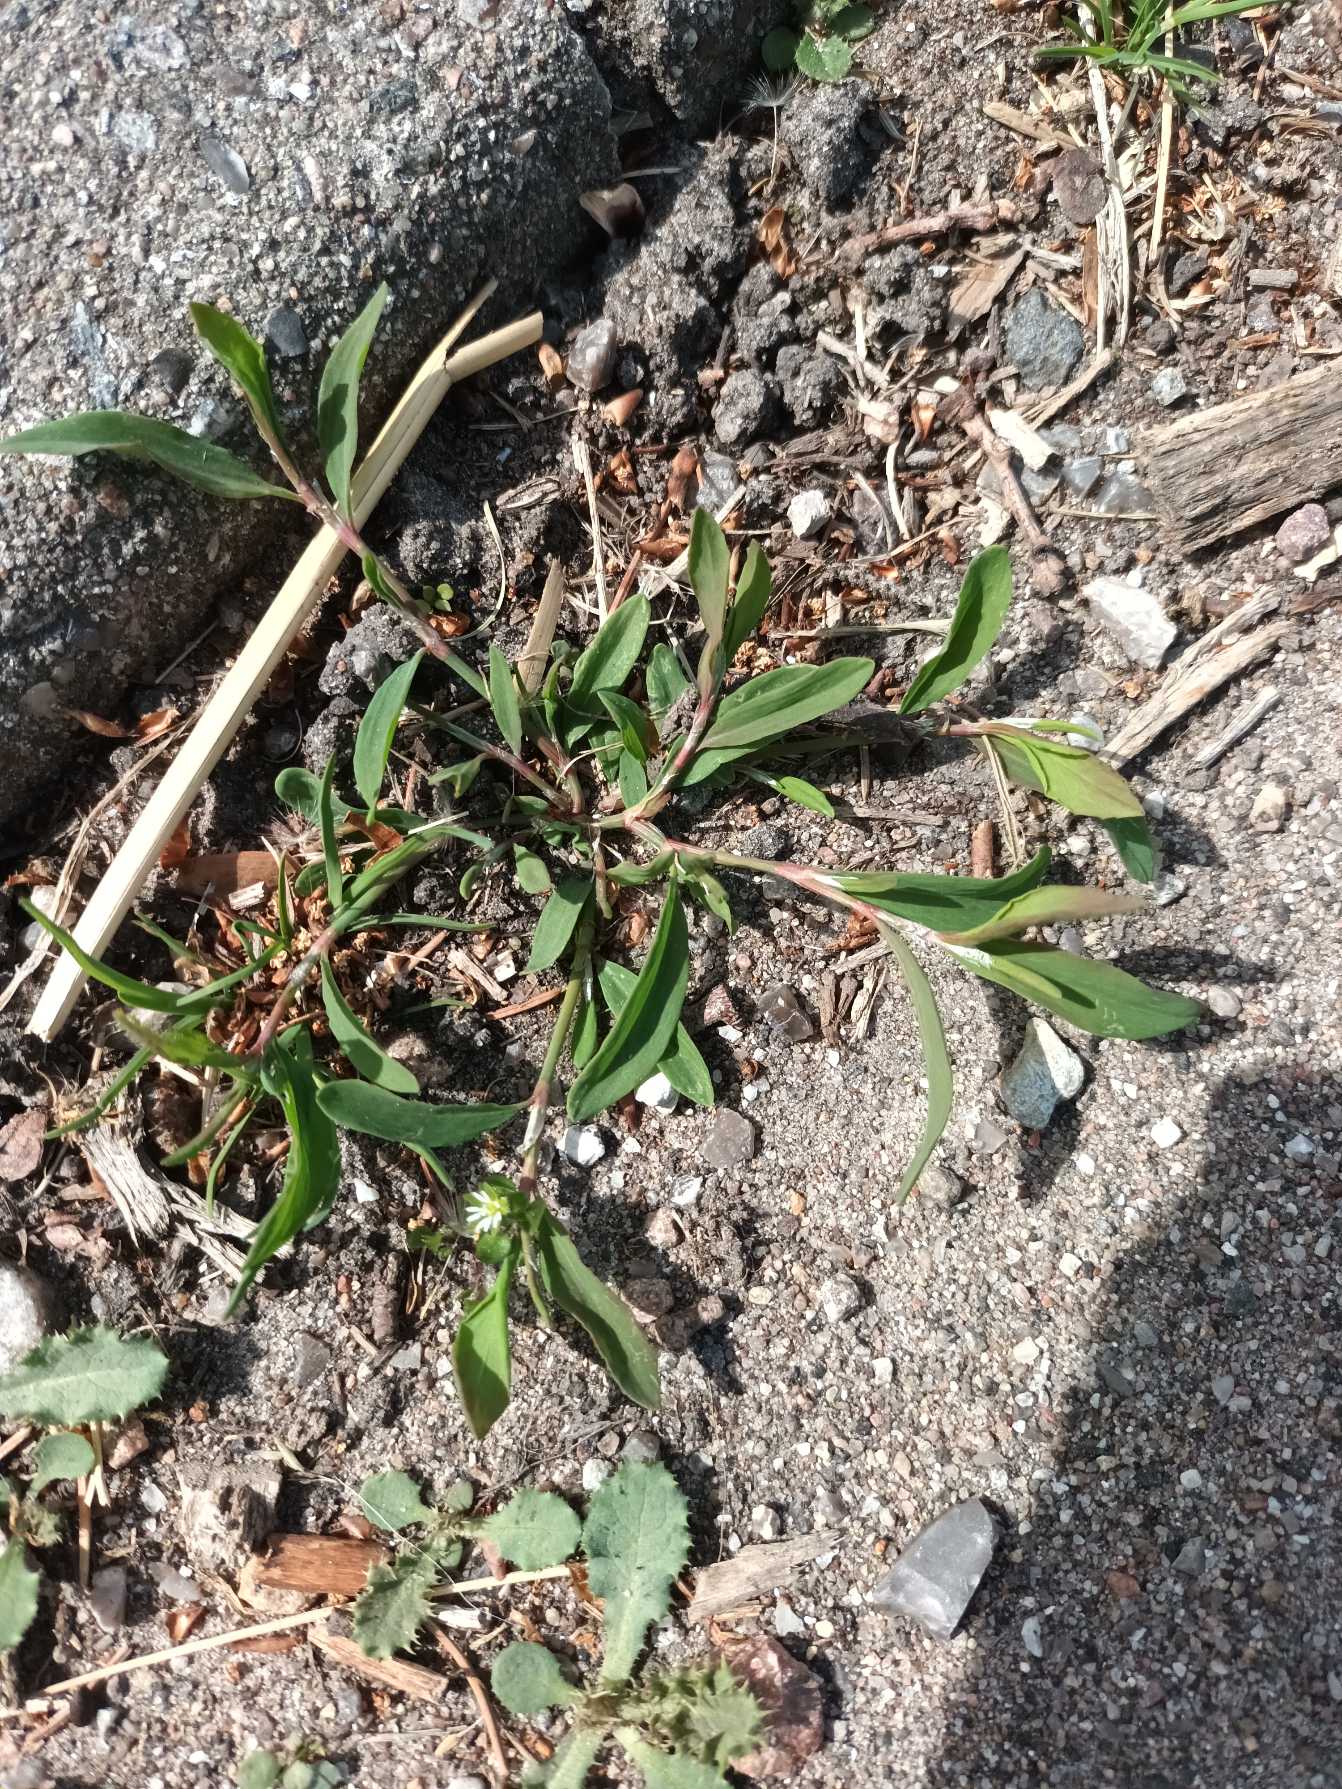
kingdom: Plantae
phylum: Tracheophyta
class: Magnoliopsida
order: Caryophyllales
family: Polygonaceae
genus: Polygonum
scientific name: Polygonum aviculare
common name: Vej-pileurt (underart)
